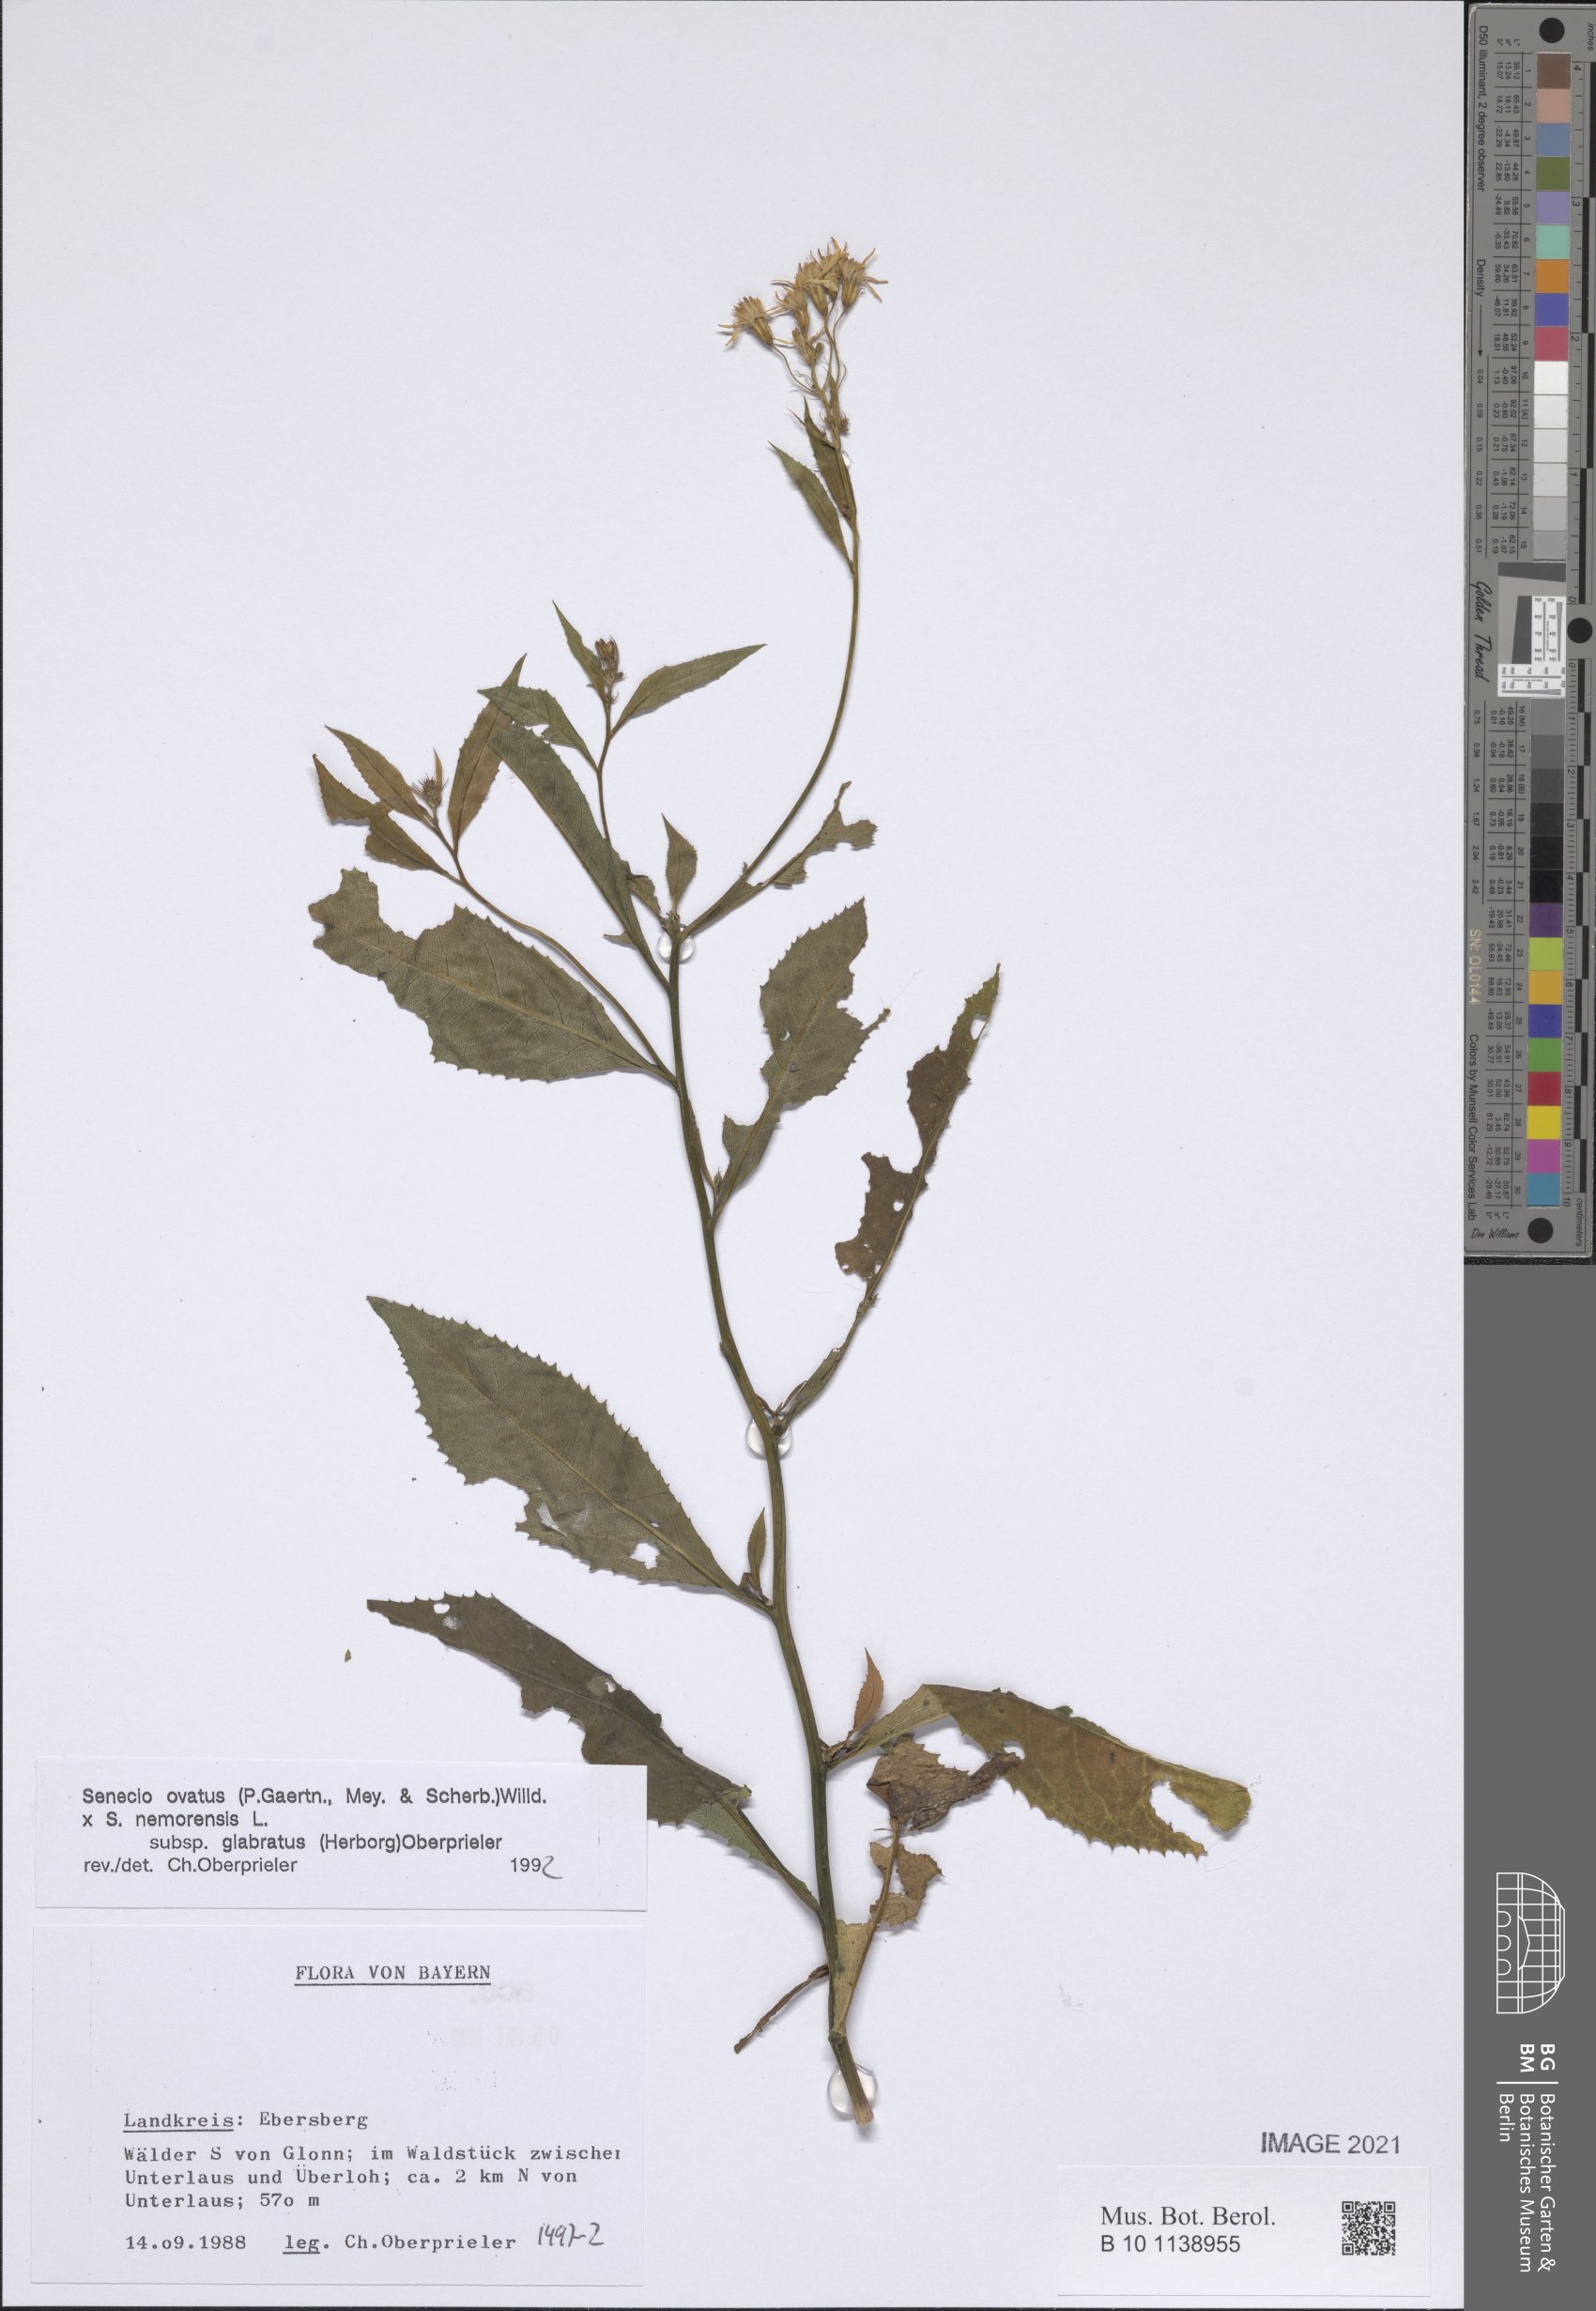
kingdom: Plantae
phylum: Tracheophyta
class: Magnoliopsida
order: Asterales
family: Asteraceae
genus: Senecio
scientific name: Senecio ovatus
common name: Wood ragwort
